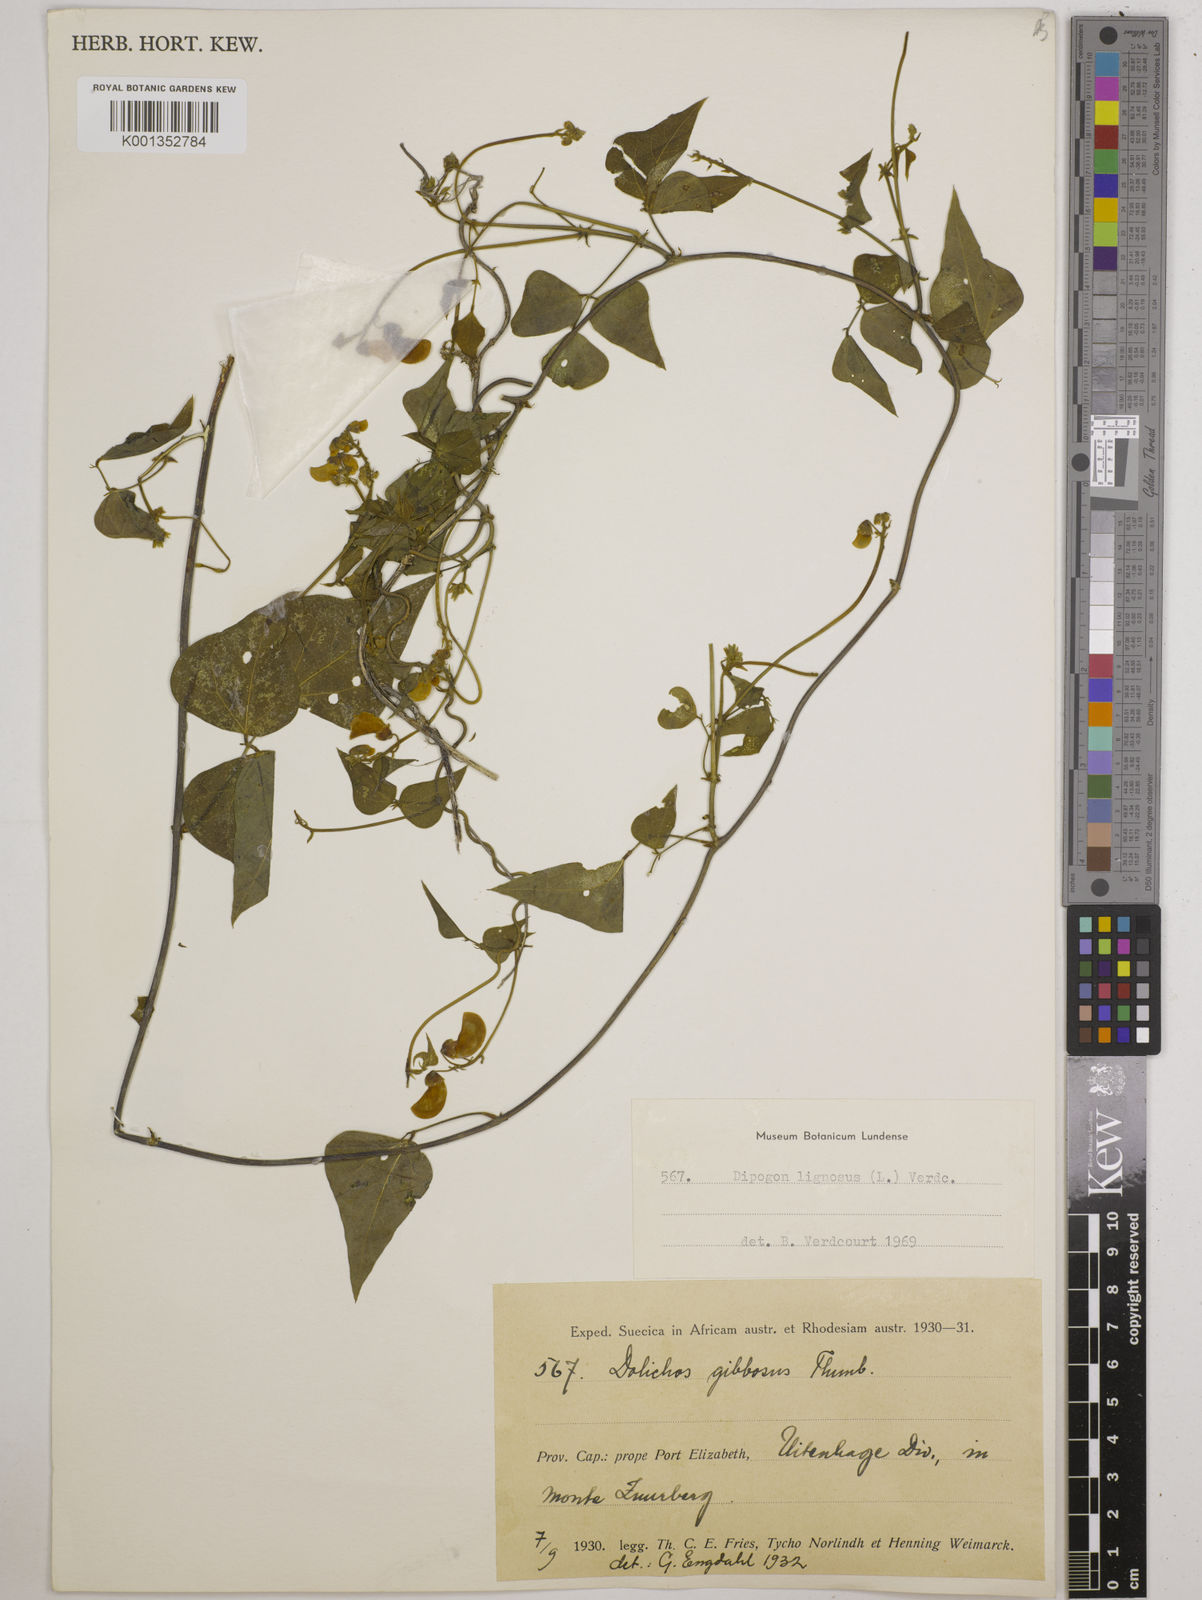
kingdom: Plantae
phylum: Tracheophyta
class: Magnoliopsida
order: Fabales
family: Fabaceae
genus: Dipogon
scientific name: Dipogon lignosus
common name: Okie bean
